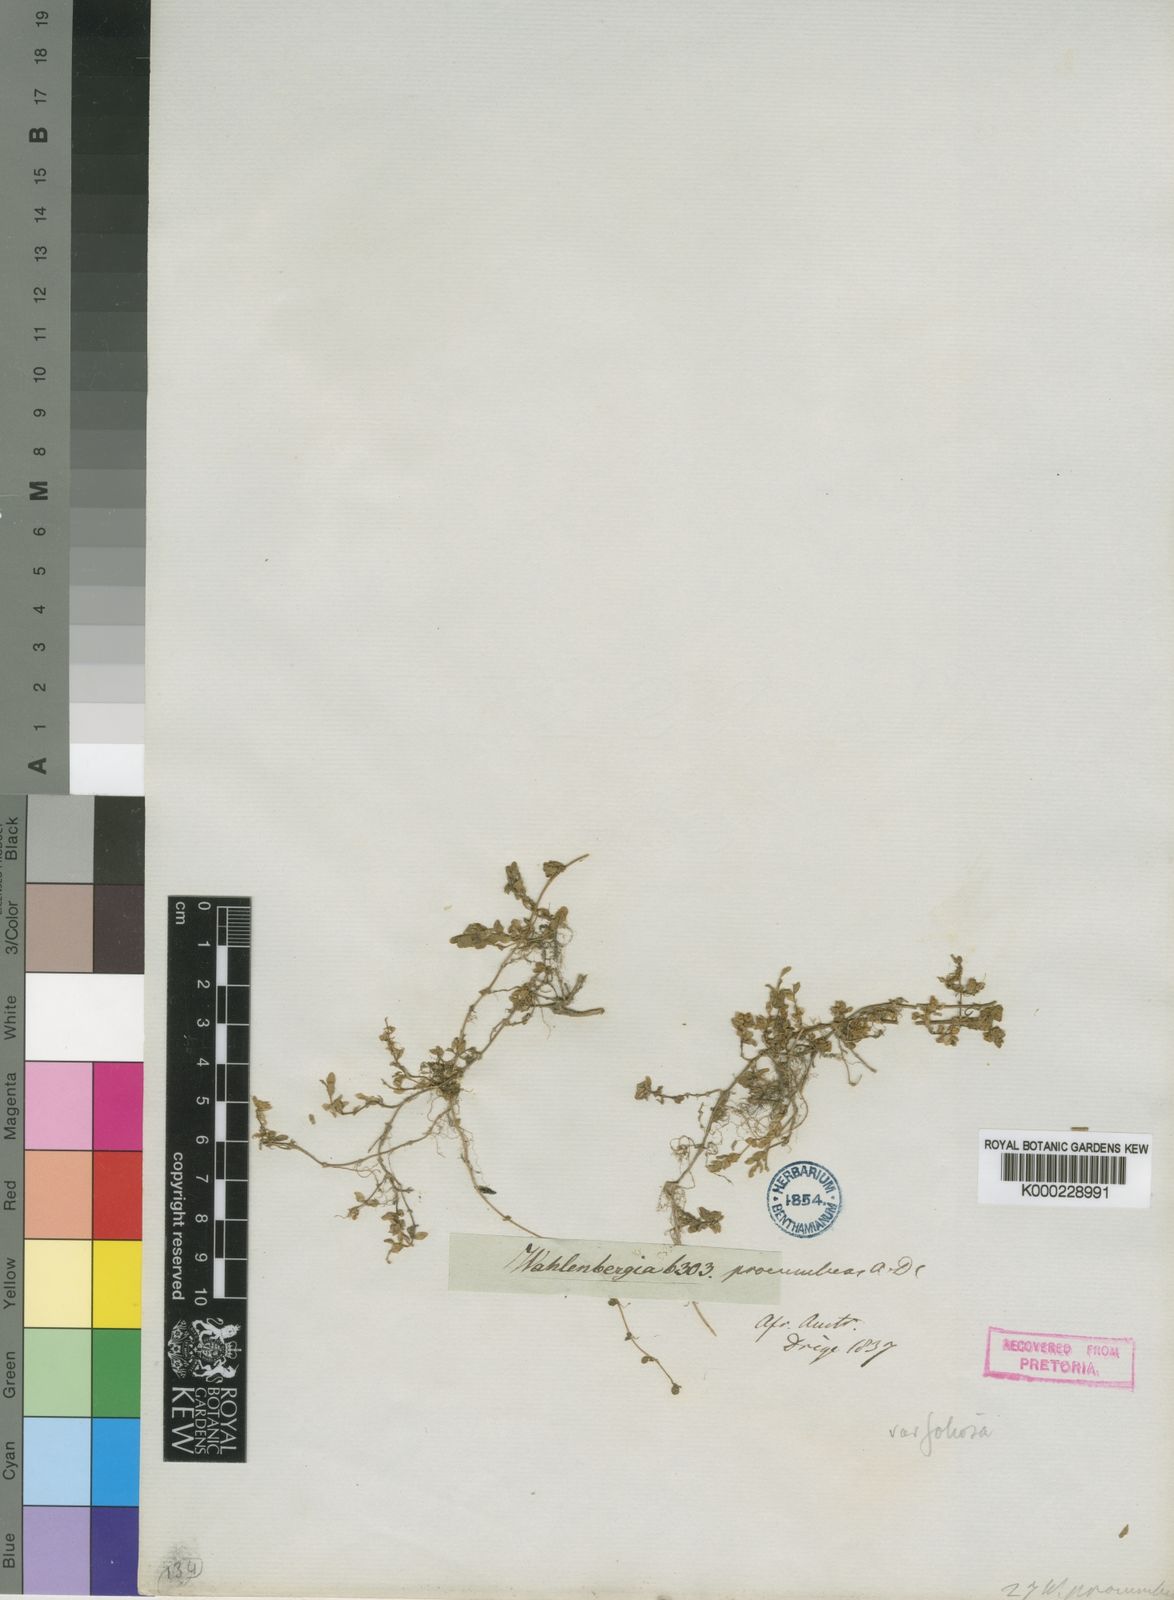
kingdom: Plantae
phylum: Tracheophyta
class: Magnoliopsida
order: Asterales
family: Campanulaceae
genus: Wahlenbergia
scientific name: Wahlenbergia procumbens
